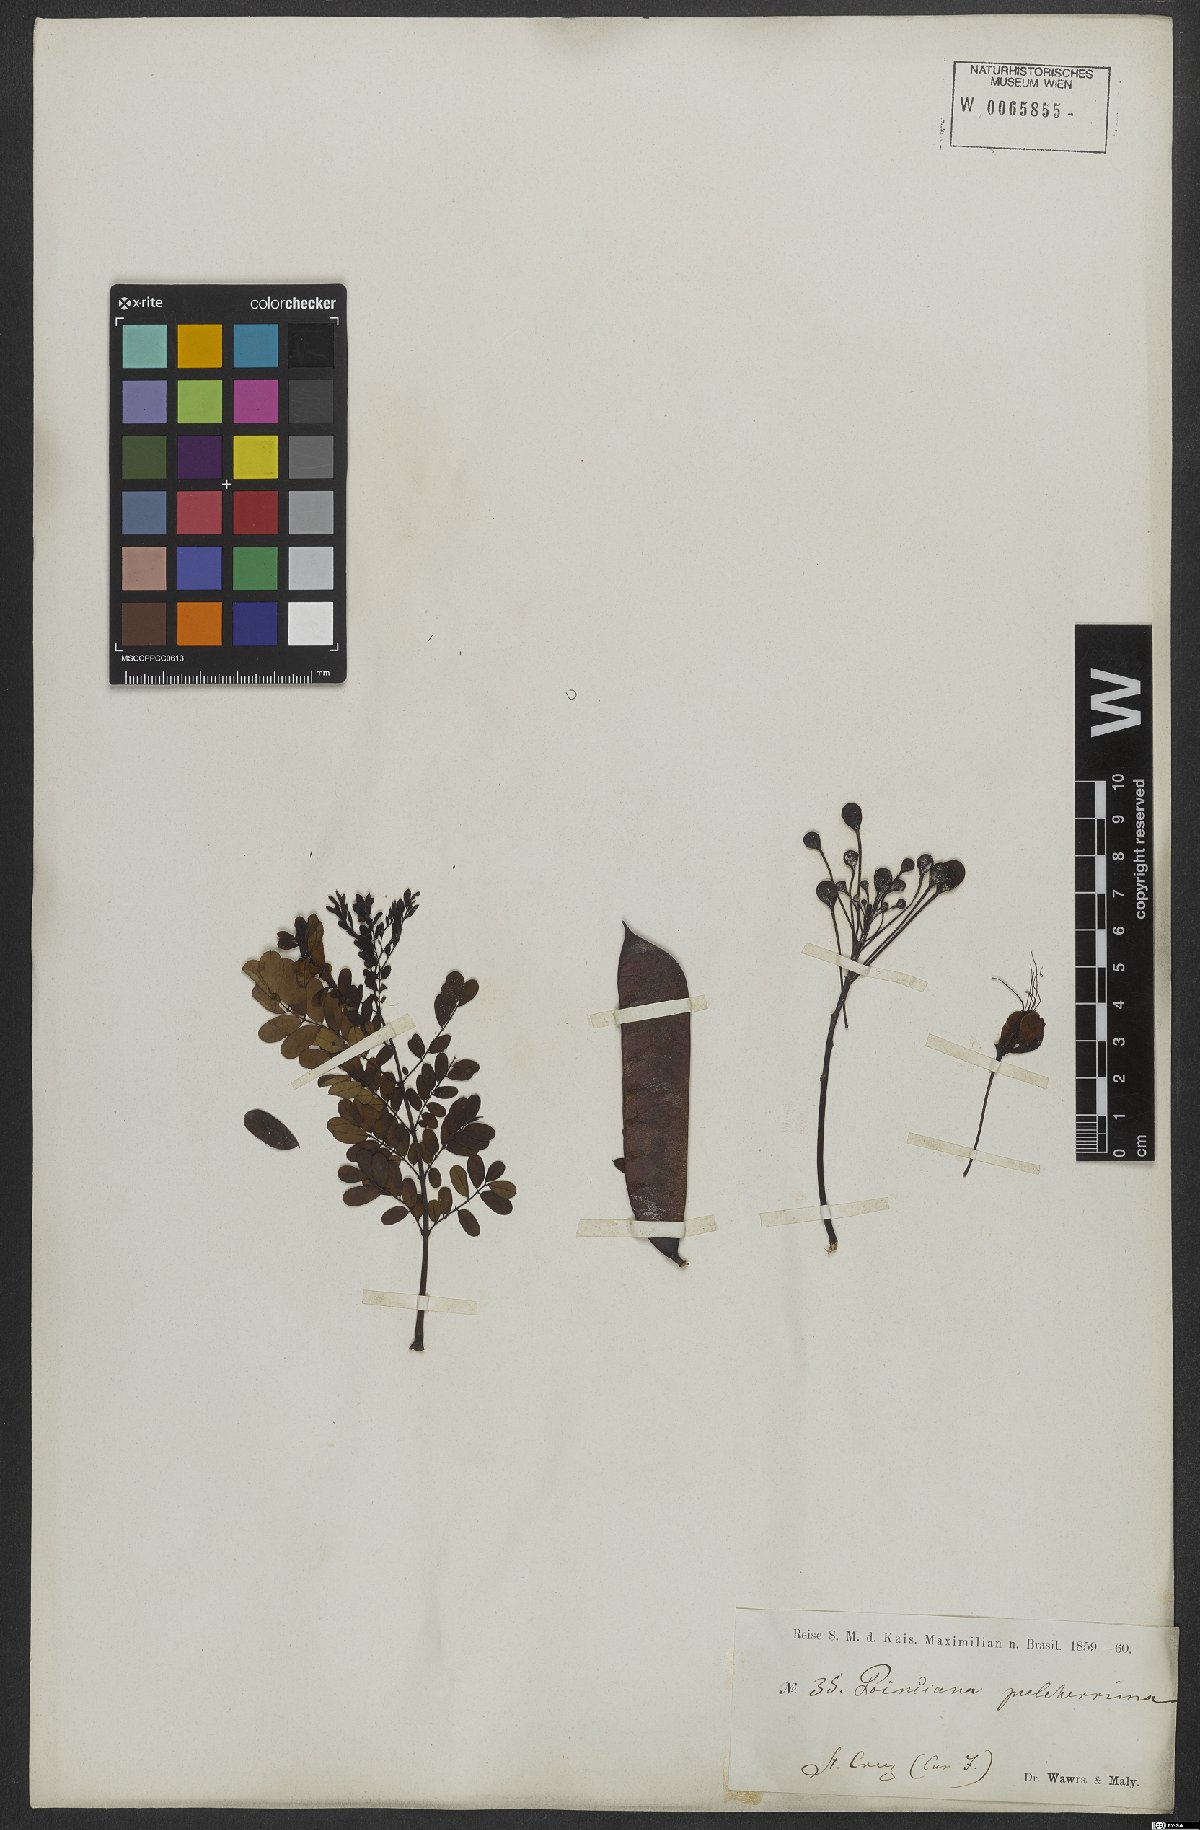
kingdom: Plantae
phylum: Tracheophyta
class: Magnoliopsida
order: Fabales
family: Fabaceae
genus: Caesalpinia
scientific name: Caesalpinia pulcherrima
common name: Pride-of-barbados
